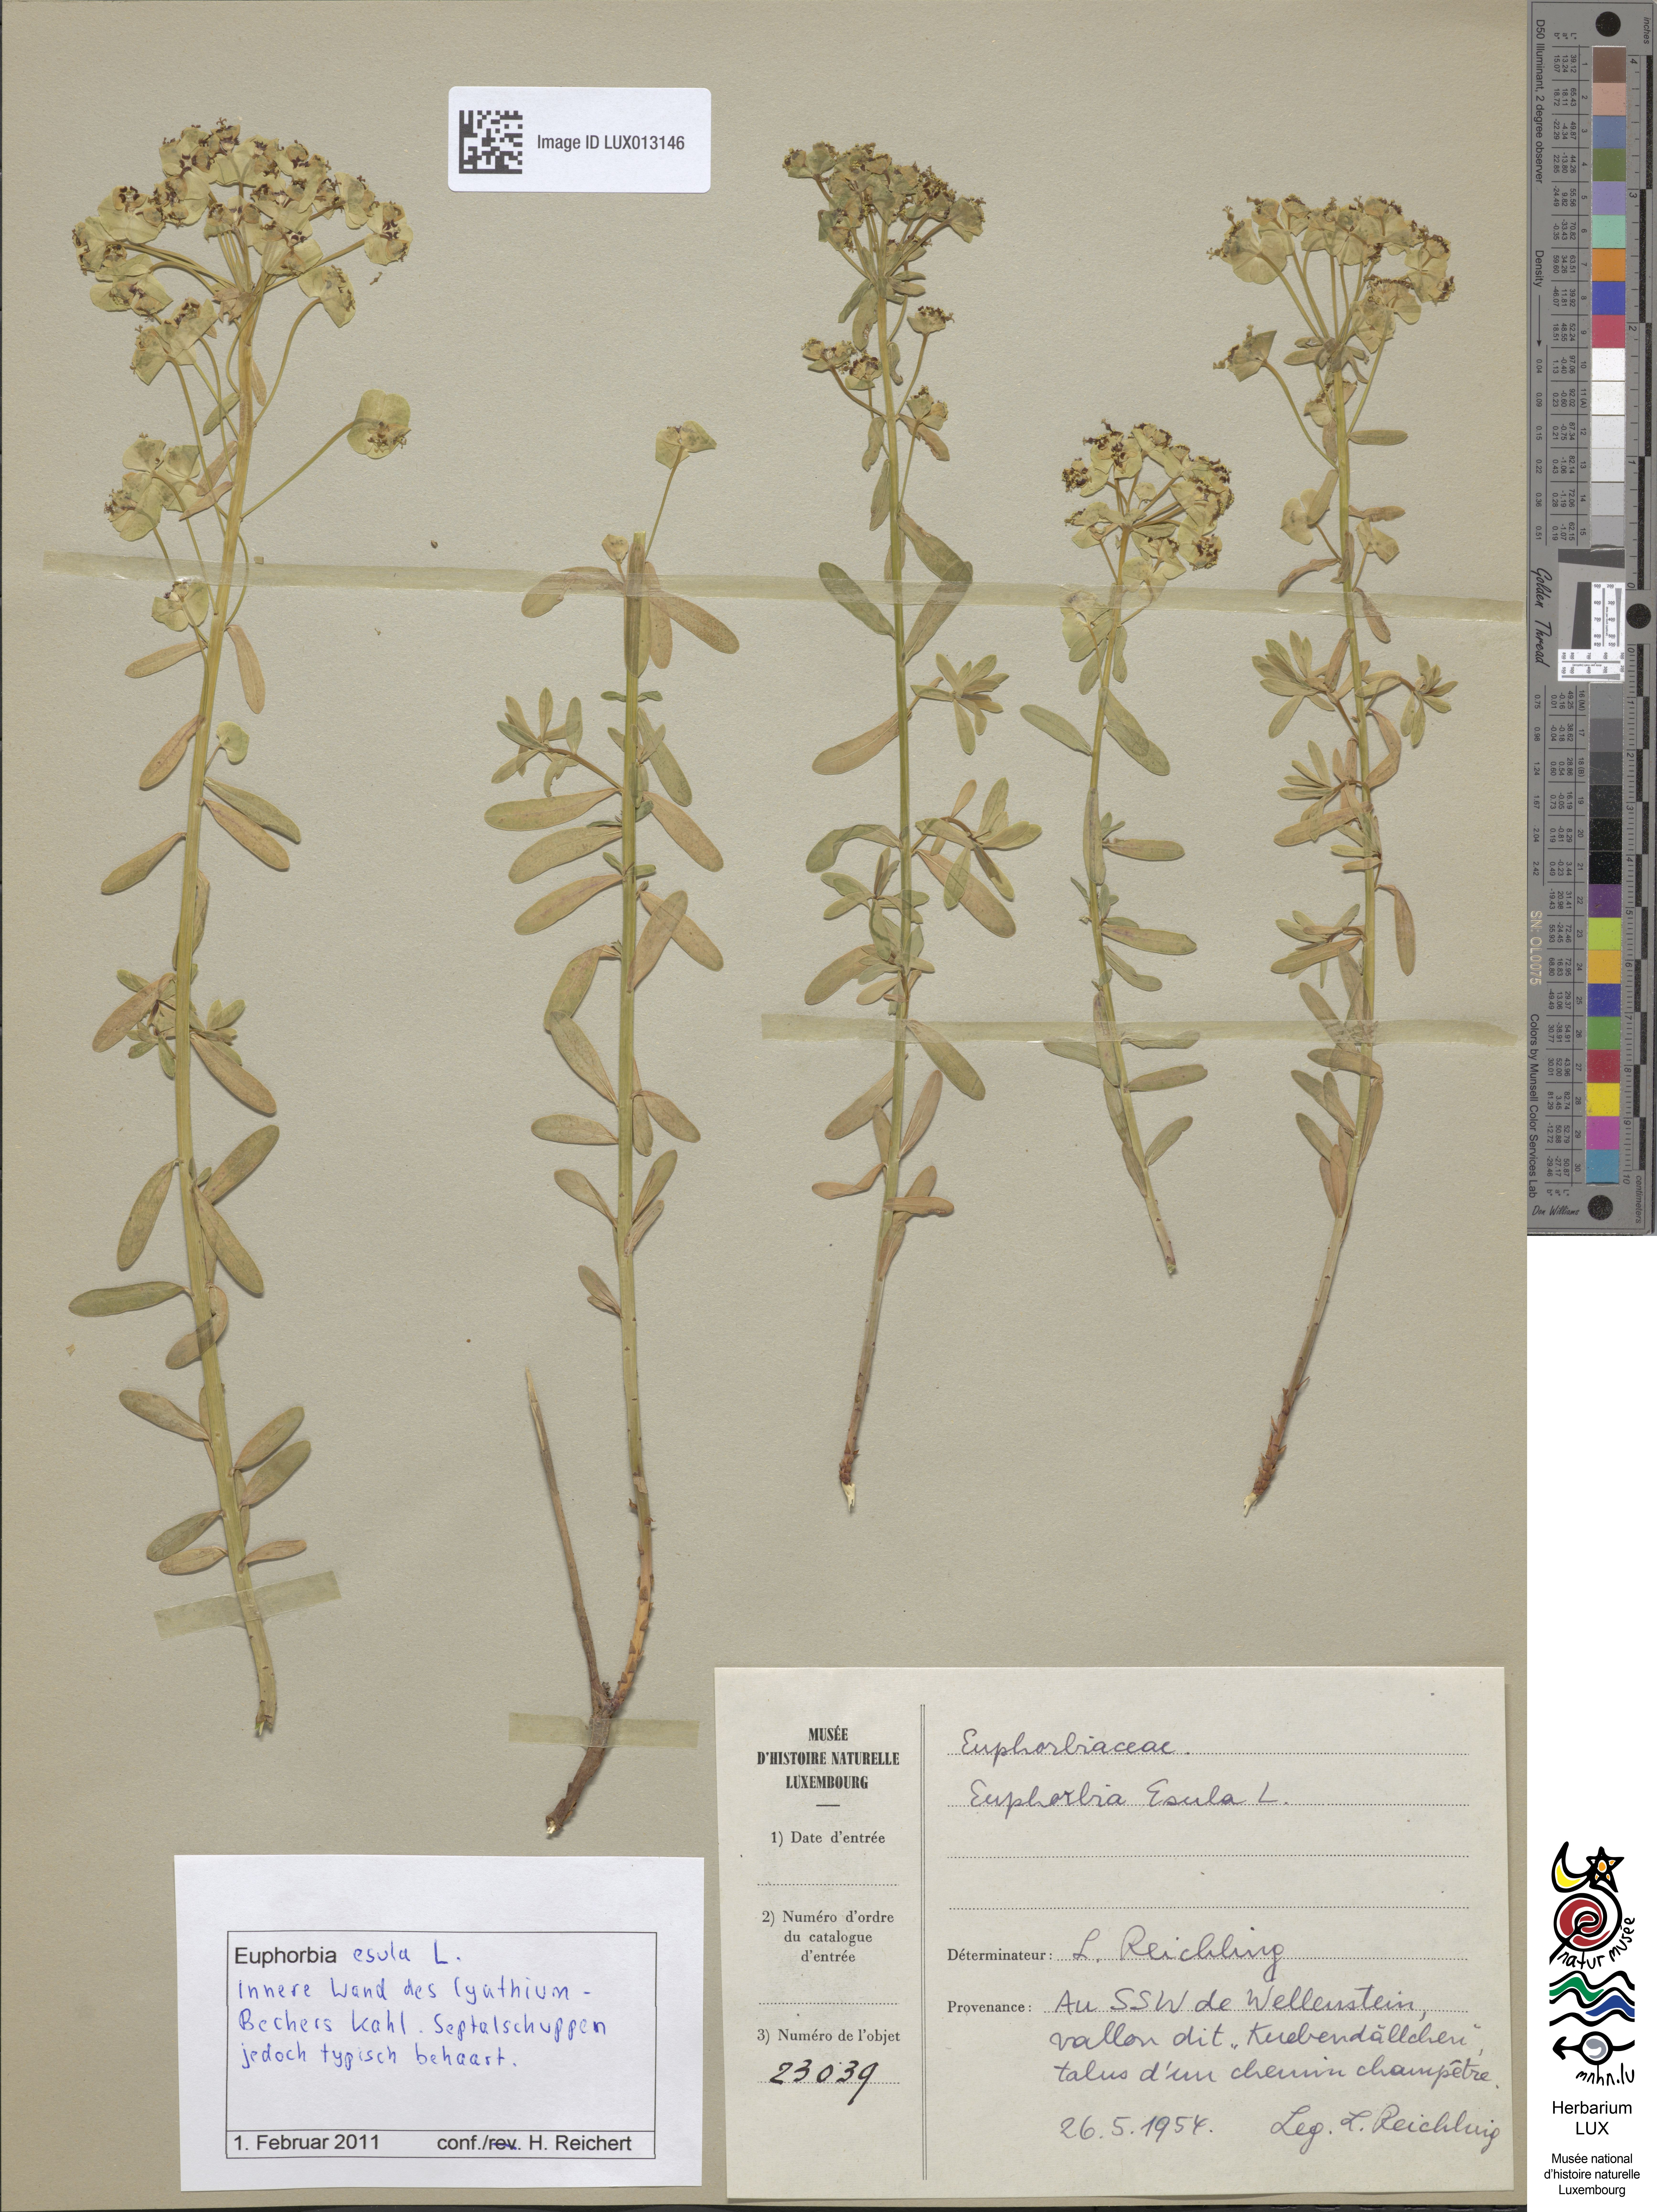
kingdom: Plantae
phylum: Tracheophyta
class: Magnoliopsida
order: Malpighiales
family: Euphorbiaceae
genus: Euphorbia
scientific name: Euphorbia esula
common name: Leafy spurge
